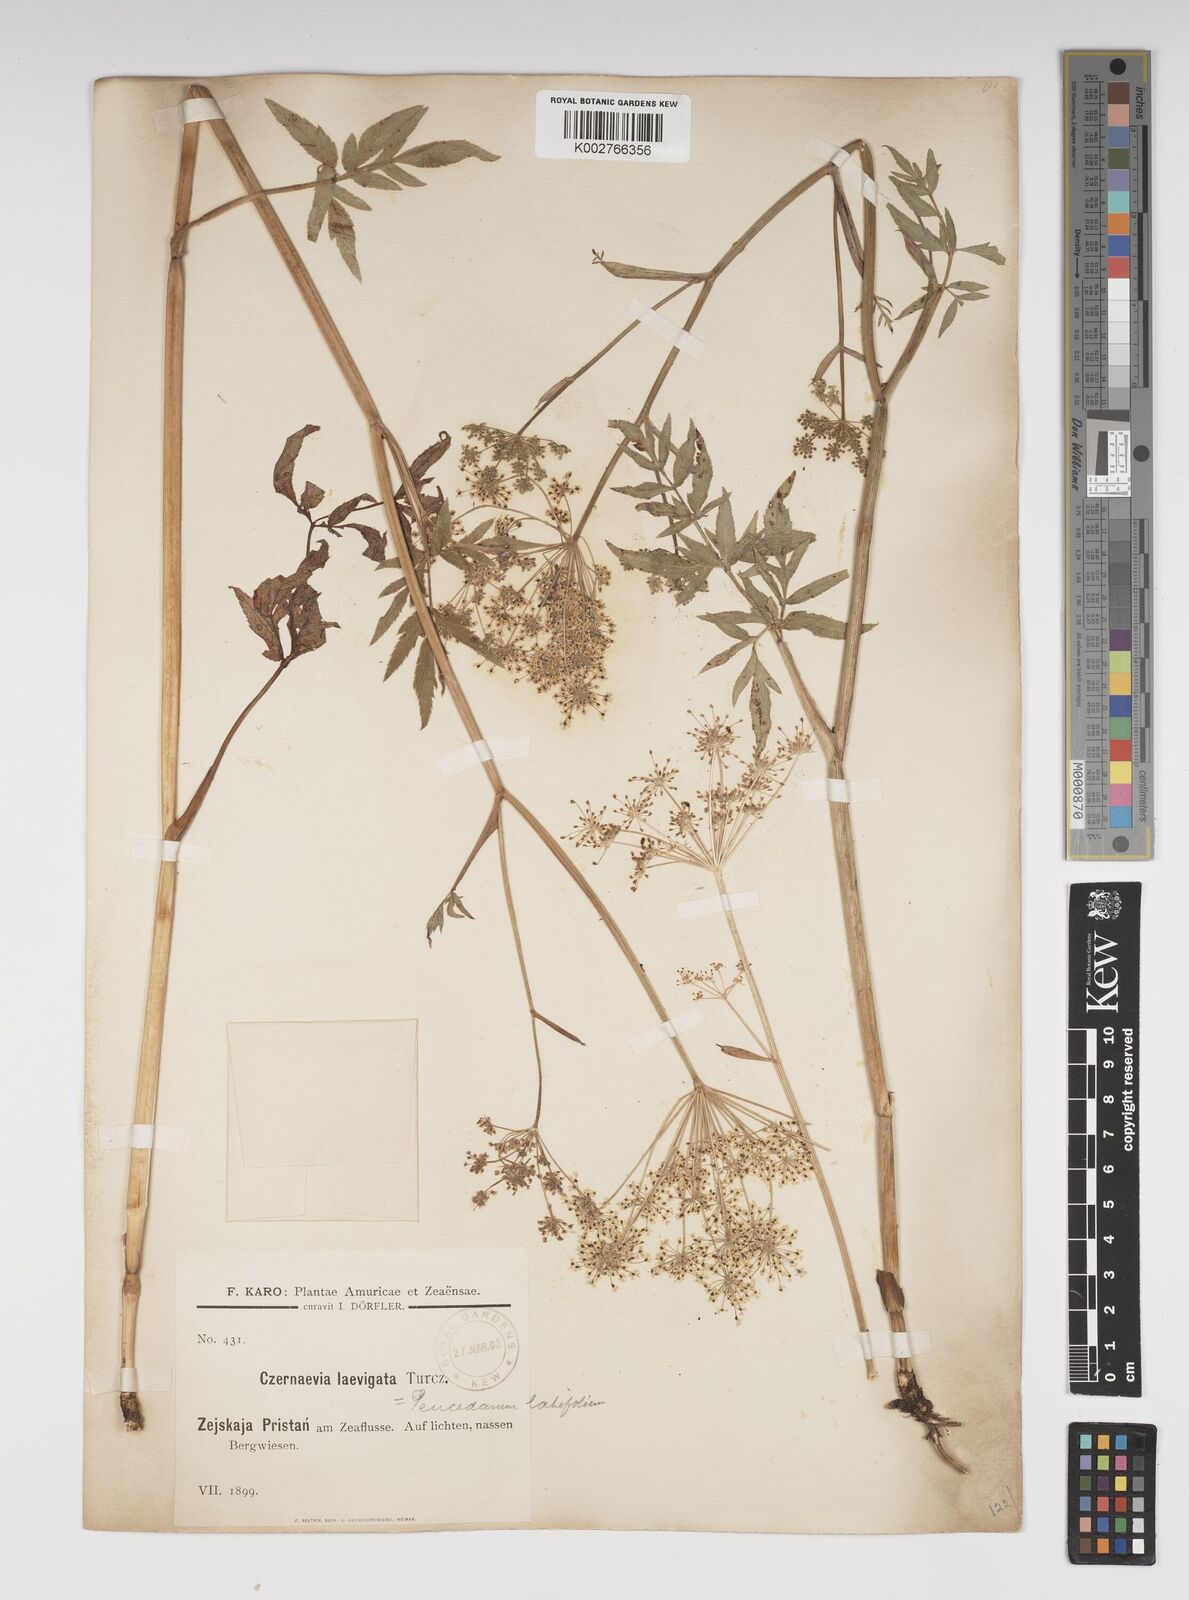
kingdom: Plantae
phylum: Tracheophyta
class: Magnoliopsida
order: Apiales
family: Apiaceae
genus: Angelica
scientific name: Angelica
